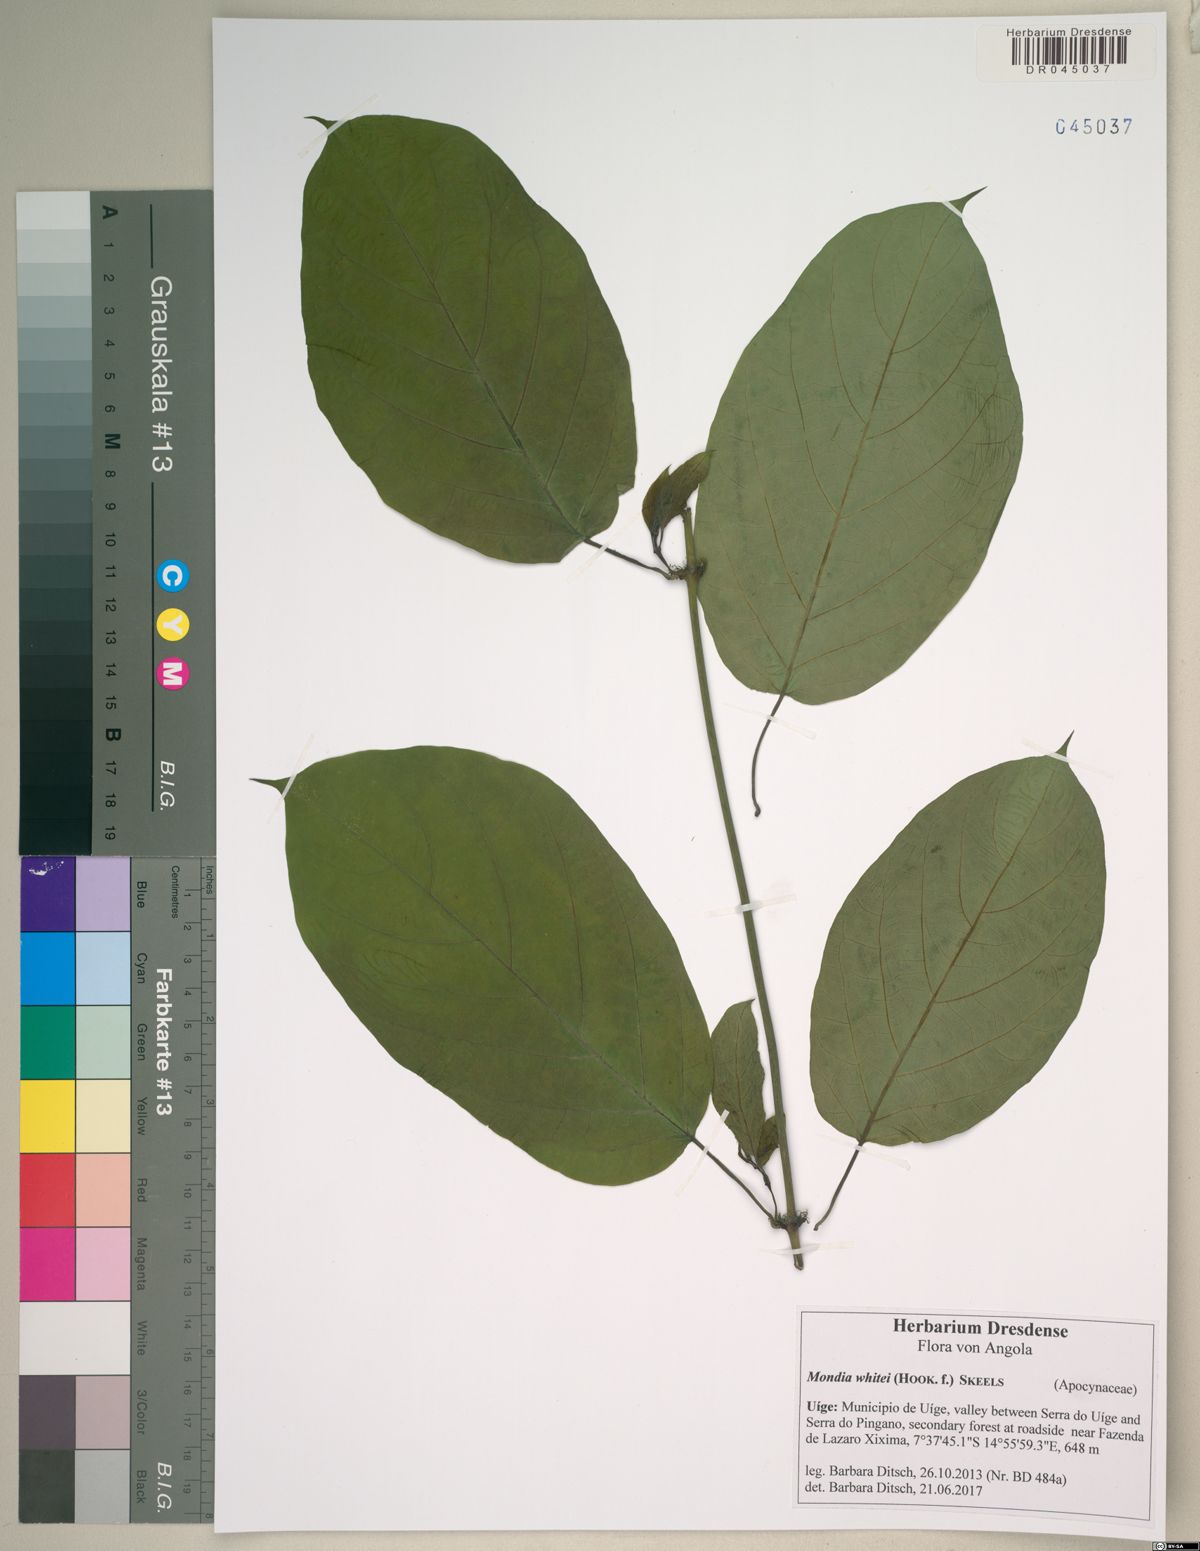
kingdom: Plantae
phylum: Tracheophyta
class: Magnoliopsida
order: Gentianales
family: Apocynaceae
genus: Mondia
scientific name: Mondia whitei
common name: Mondia
